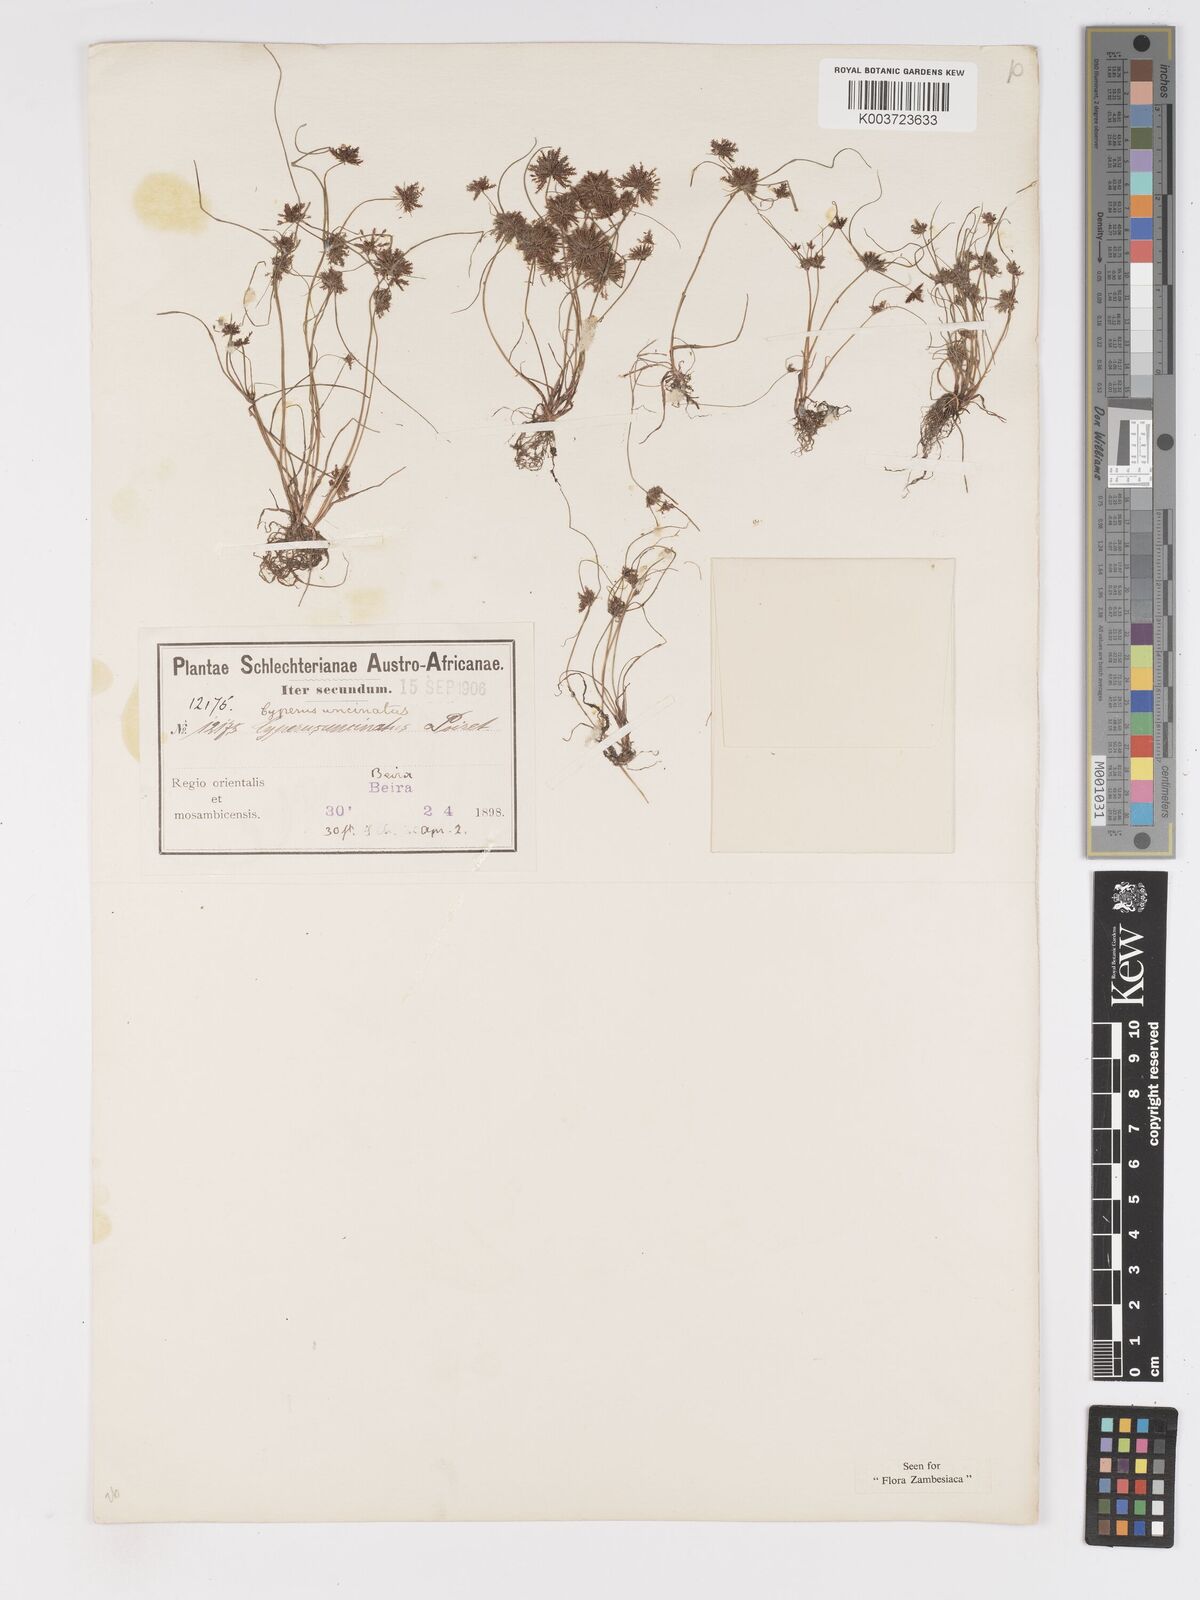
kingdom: Plantae
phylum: Tracheophyta
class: Liliopsida
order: Poales
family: Cyperaceae
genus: Cyperus
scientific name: Cyperus betafensis
